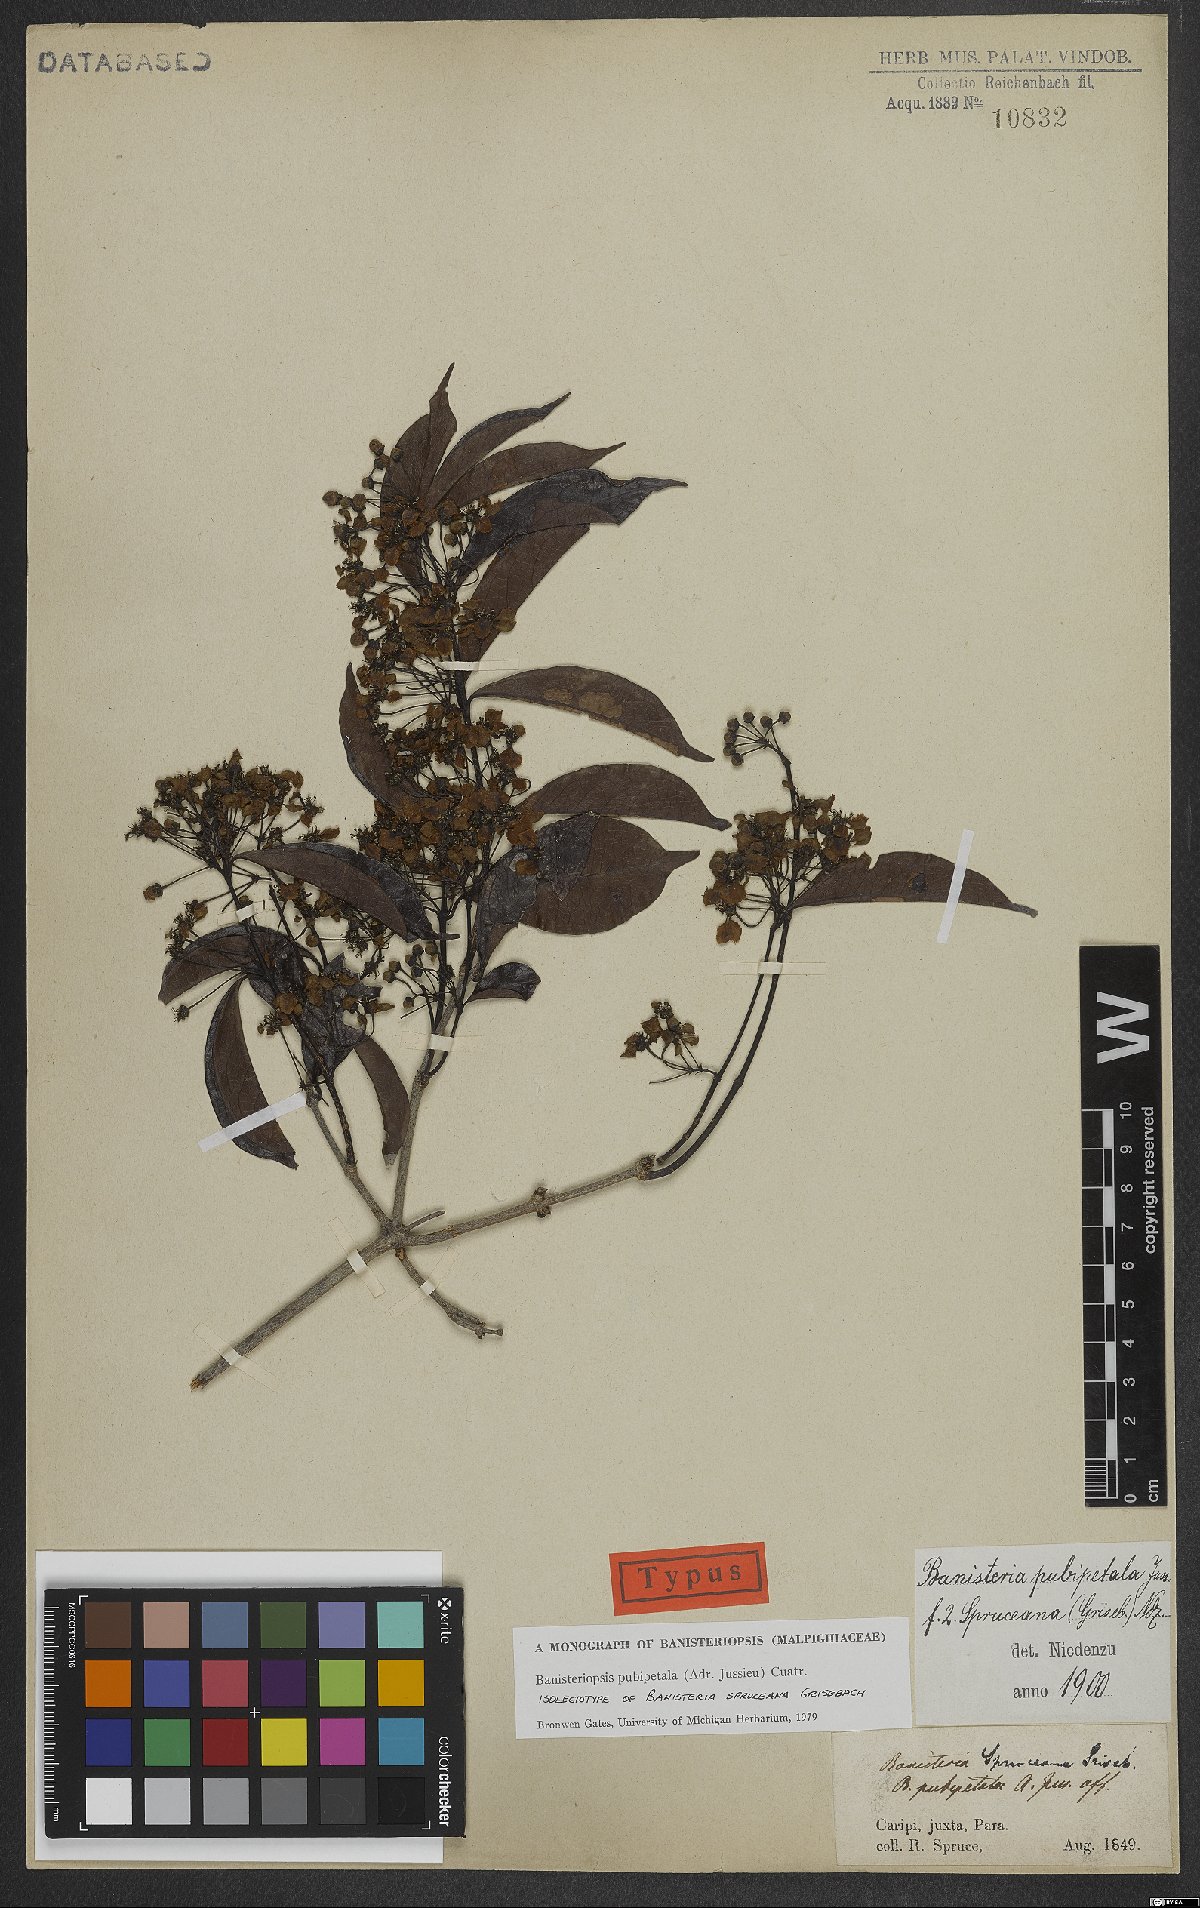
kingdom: Plantae
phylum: Tracheophyta
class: Magnoliopsida
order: Malpighiales
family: Malpighiaceae
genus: Diplopterys
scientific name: Diplopterys pubipetala
